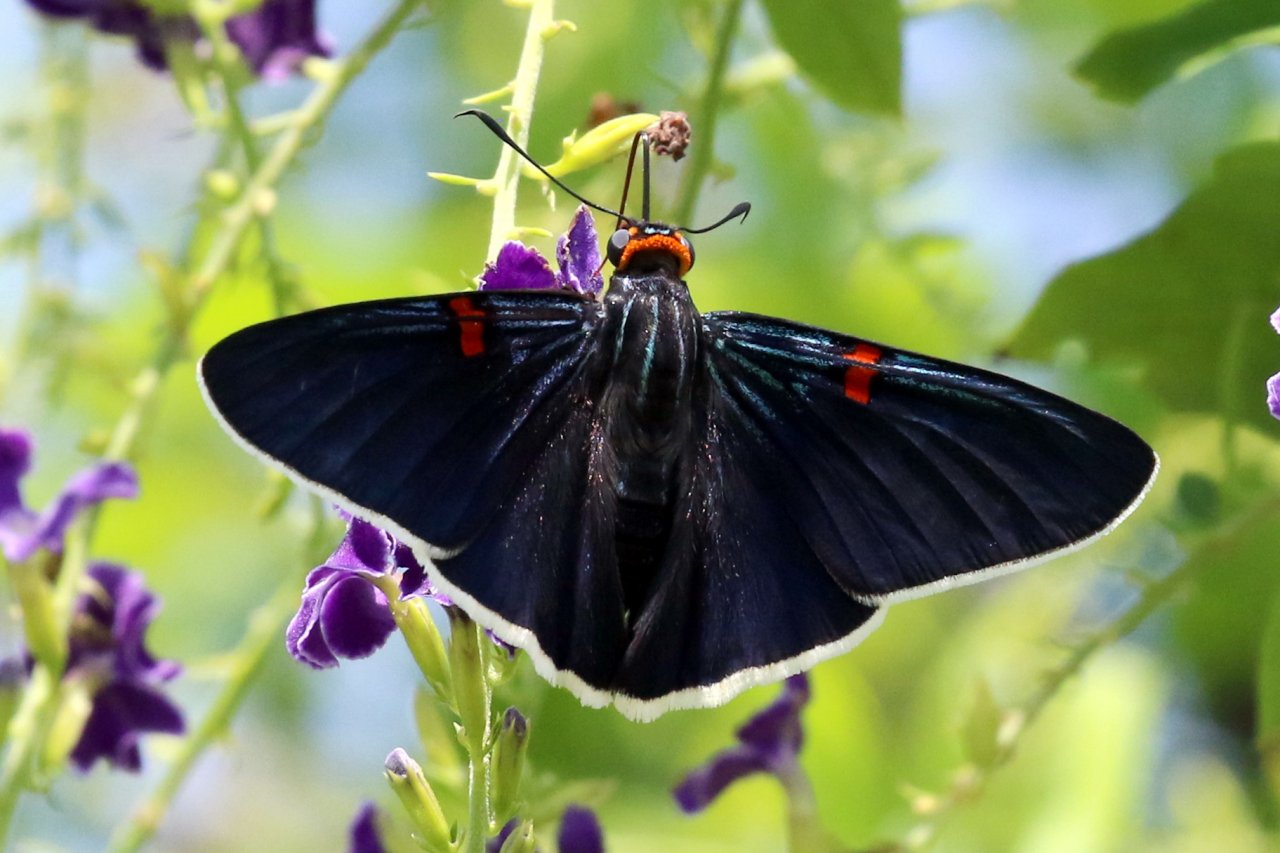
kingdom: Animalia
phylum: Arthropoda
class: Insecta
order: Lepidoptera
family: Hesperiidae
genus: Phocides
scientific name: Phocides polybius
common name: Guava Skipper
